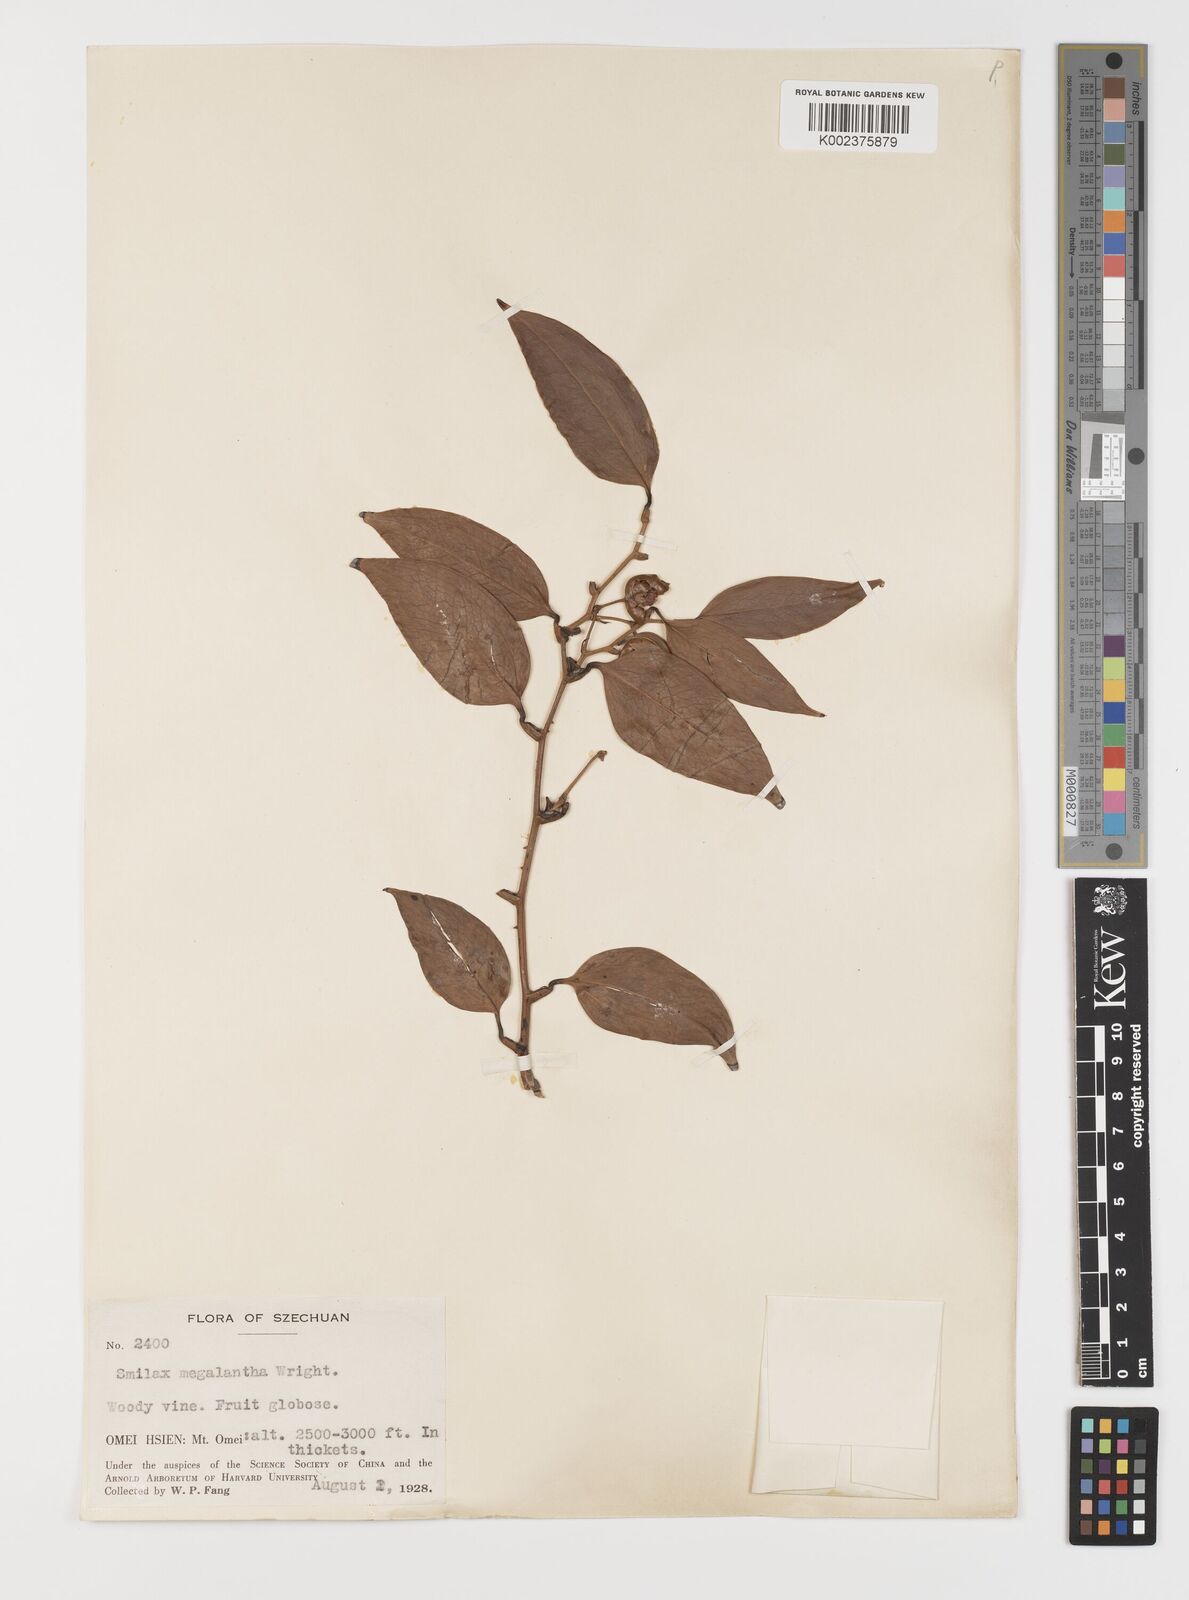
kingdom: Plantae
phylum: Tracheophyta
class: Liliopsida
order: Liliales
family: Smilacaceae
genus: Smilax
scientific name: Smilax megalantha
